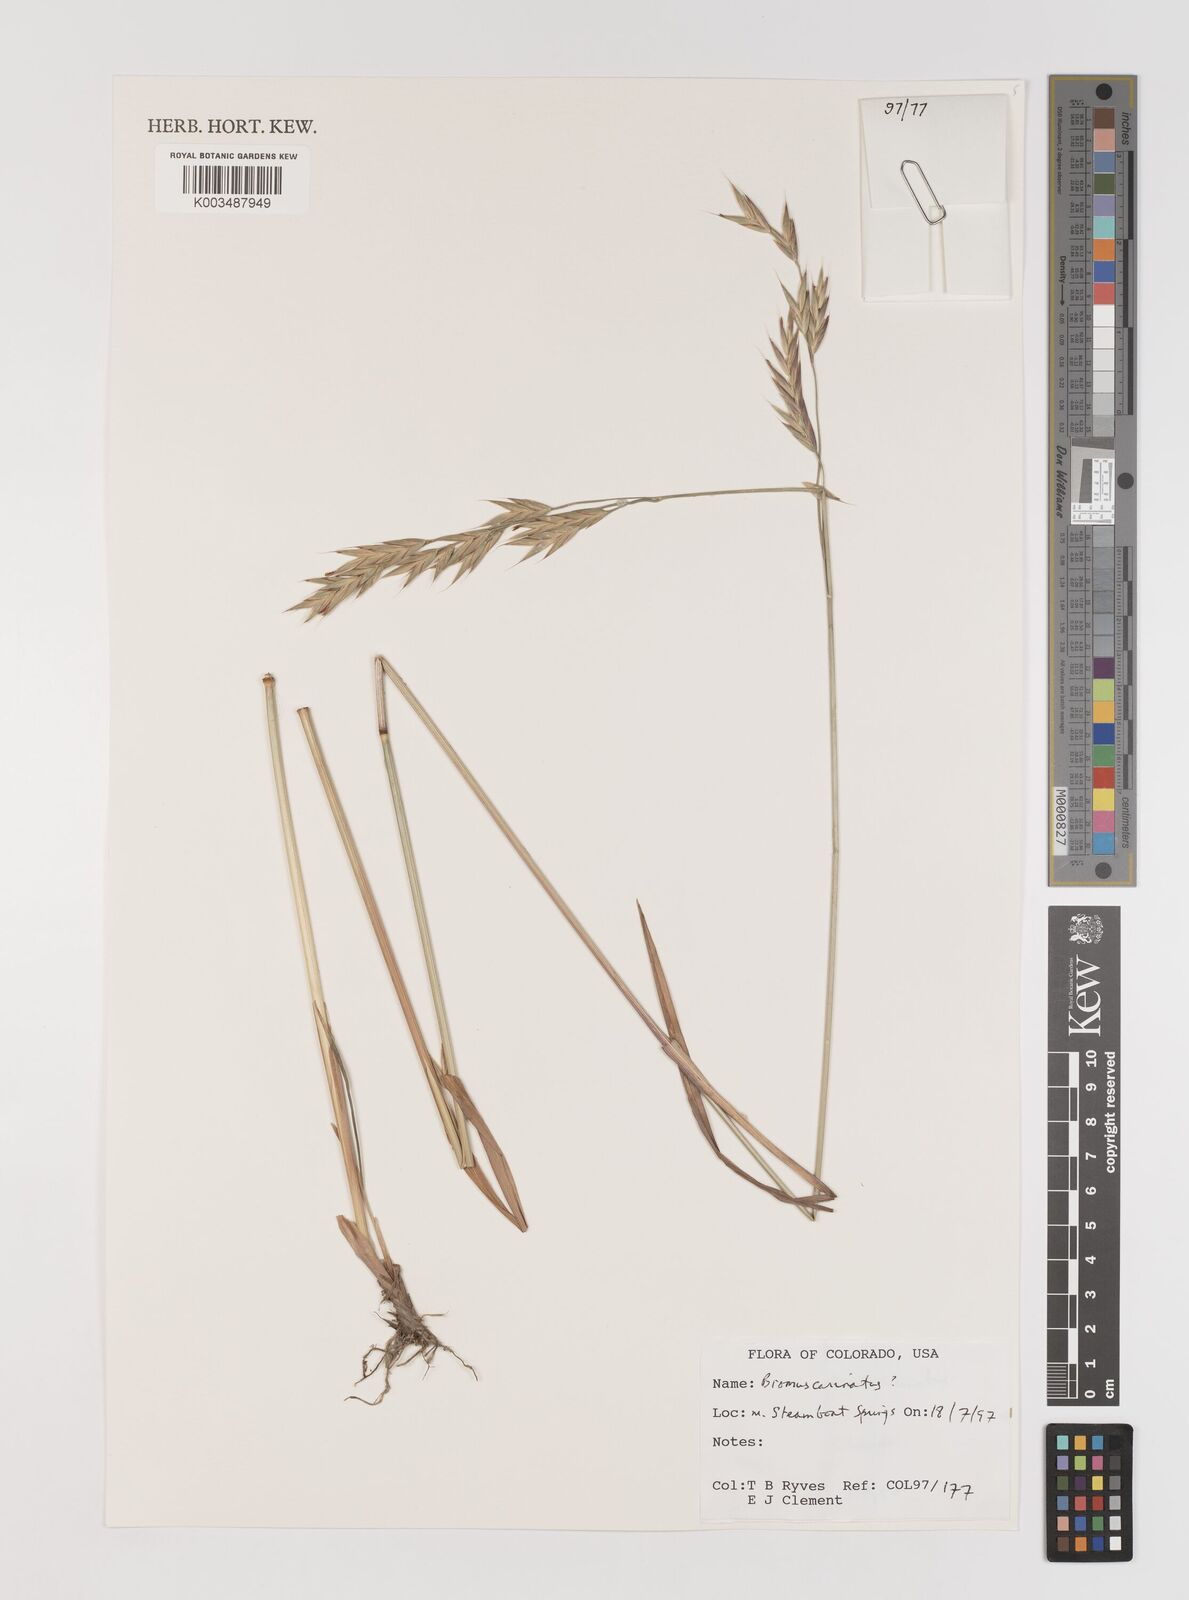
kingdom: Plantae
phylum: Tracheophyta
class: Liliopsida
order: Poales
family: Poaceae
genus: Bromus
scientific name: Bromus carinatus
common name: Mountain brome
